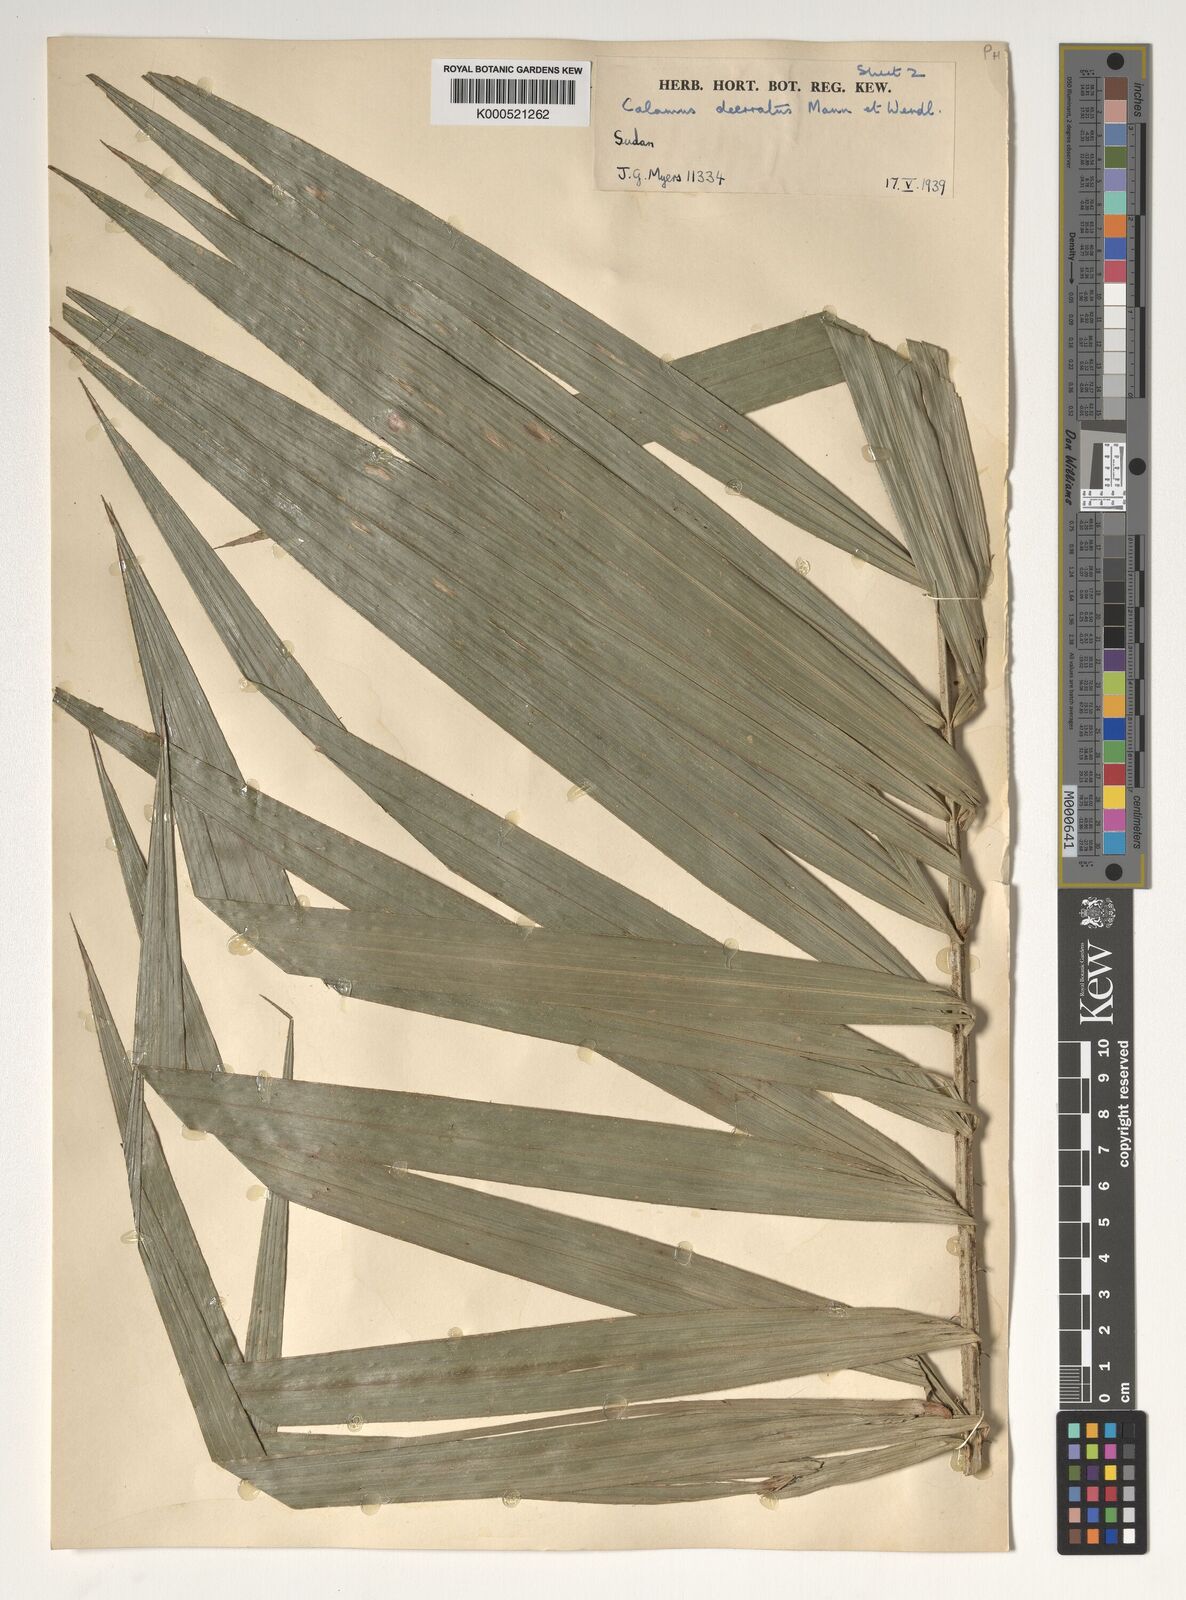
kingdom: Plantae
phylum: Tracheophyta
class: Liliopsida
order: Arecales
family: Arecaceae
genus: Calamus
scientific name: Calamus deerratus
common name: Rattan
